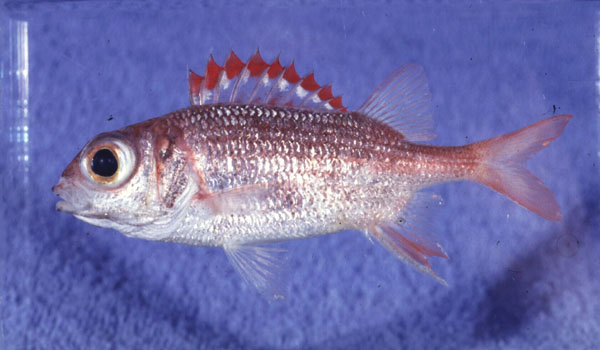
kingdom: Animalia
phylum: Chordata
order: Beryciformes
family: Holocentridae
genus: Sargocentron
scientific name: Sargocentron punctatissimum
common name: Peppered squirrelfish
